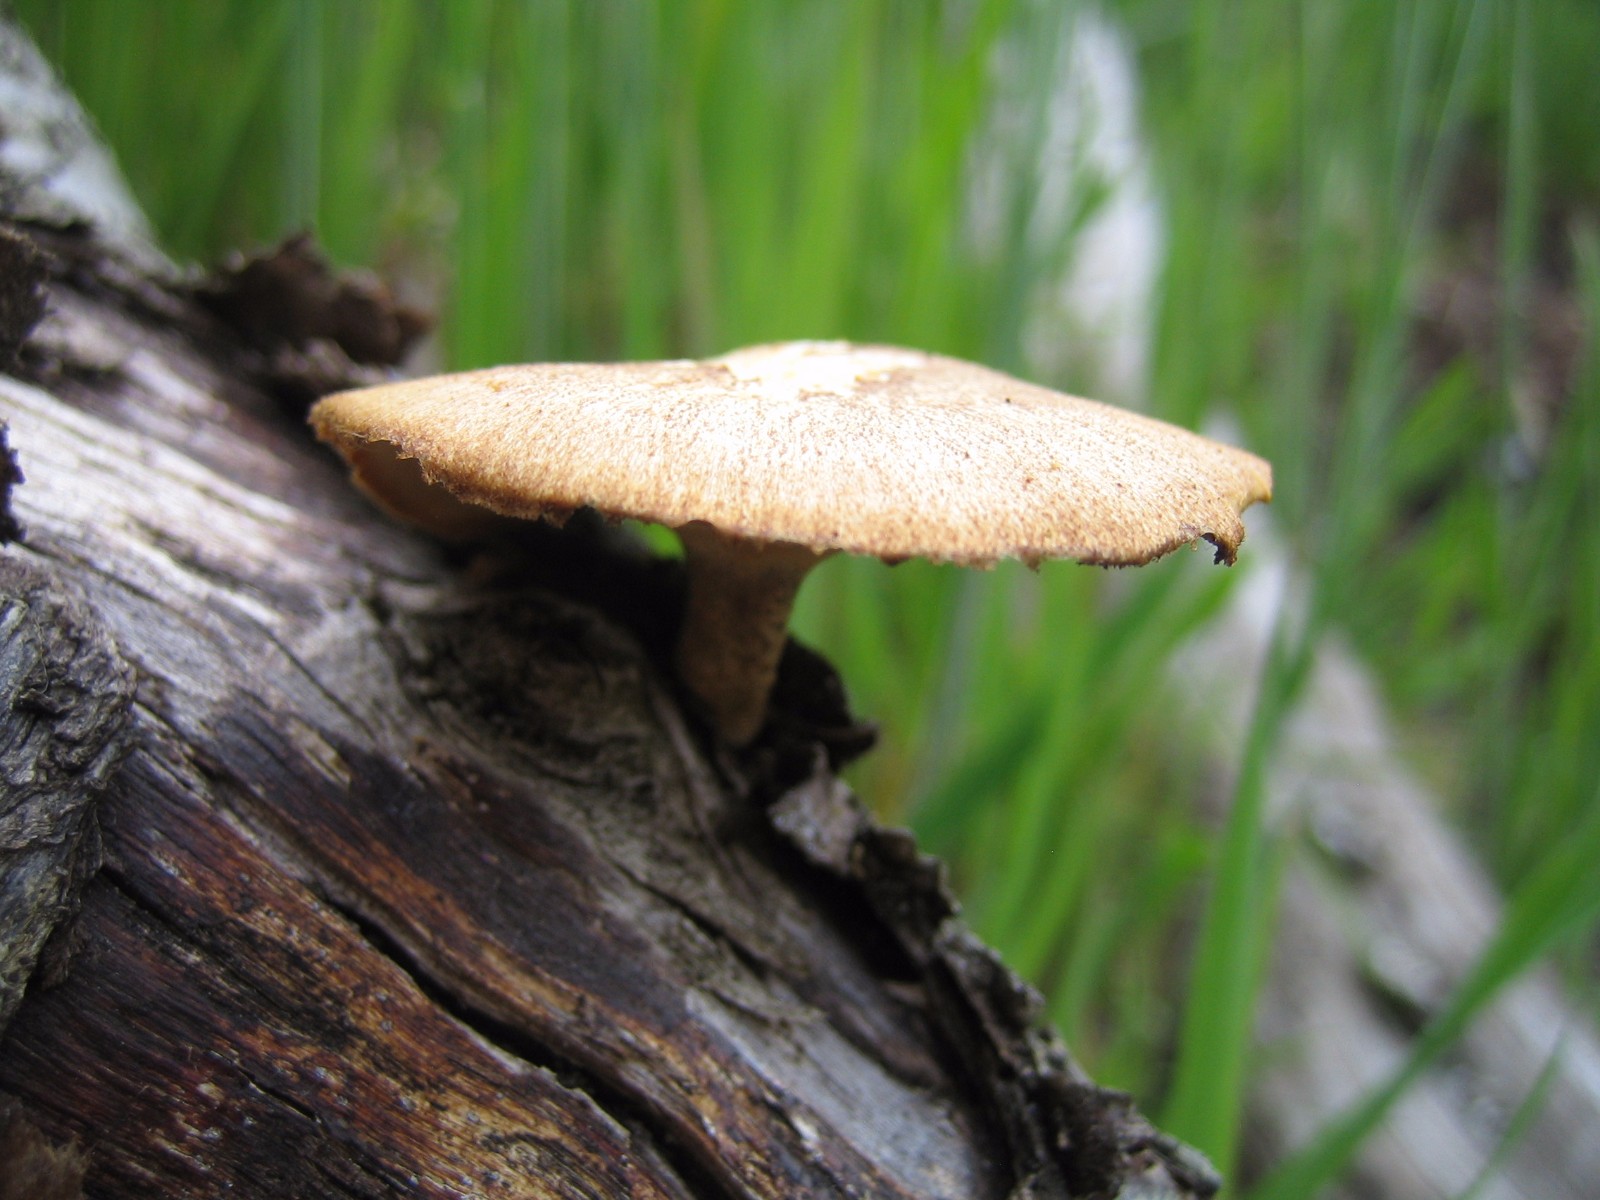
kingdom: Fungi
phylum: Basidiomycota
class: Agaricomycetes
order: Polyporales
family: Polyporaceae
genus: Lentinus
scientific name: Lentinus substrictus
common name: forårs-stilkporesvamp
